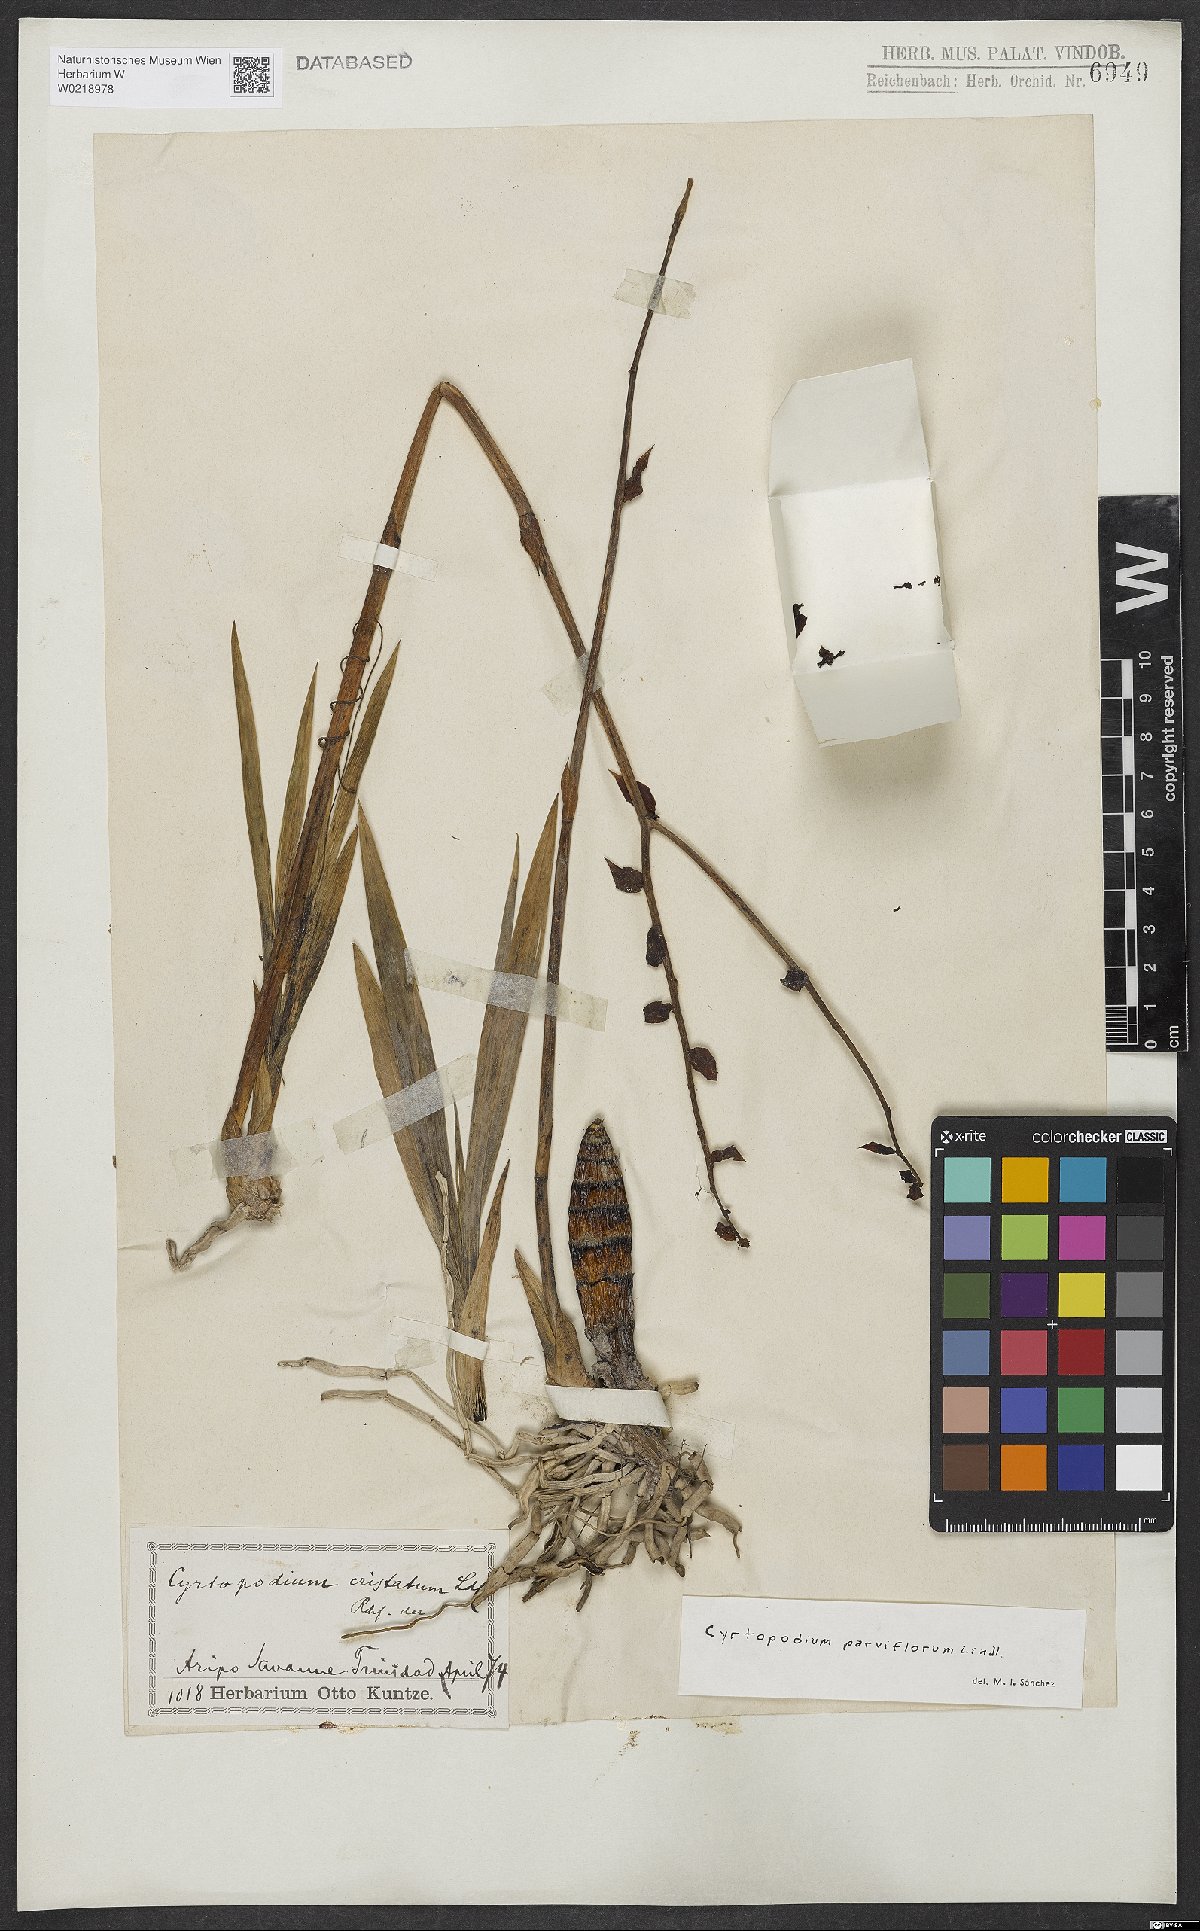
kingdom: Plantae
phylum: Tracheophyta
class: Liliopsida
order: Asparagales
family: Orchidaceae
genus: Cyrtopodium
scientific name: Cyrtopodium parviflorum
